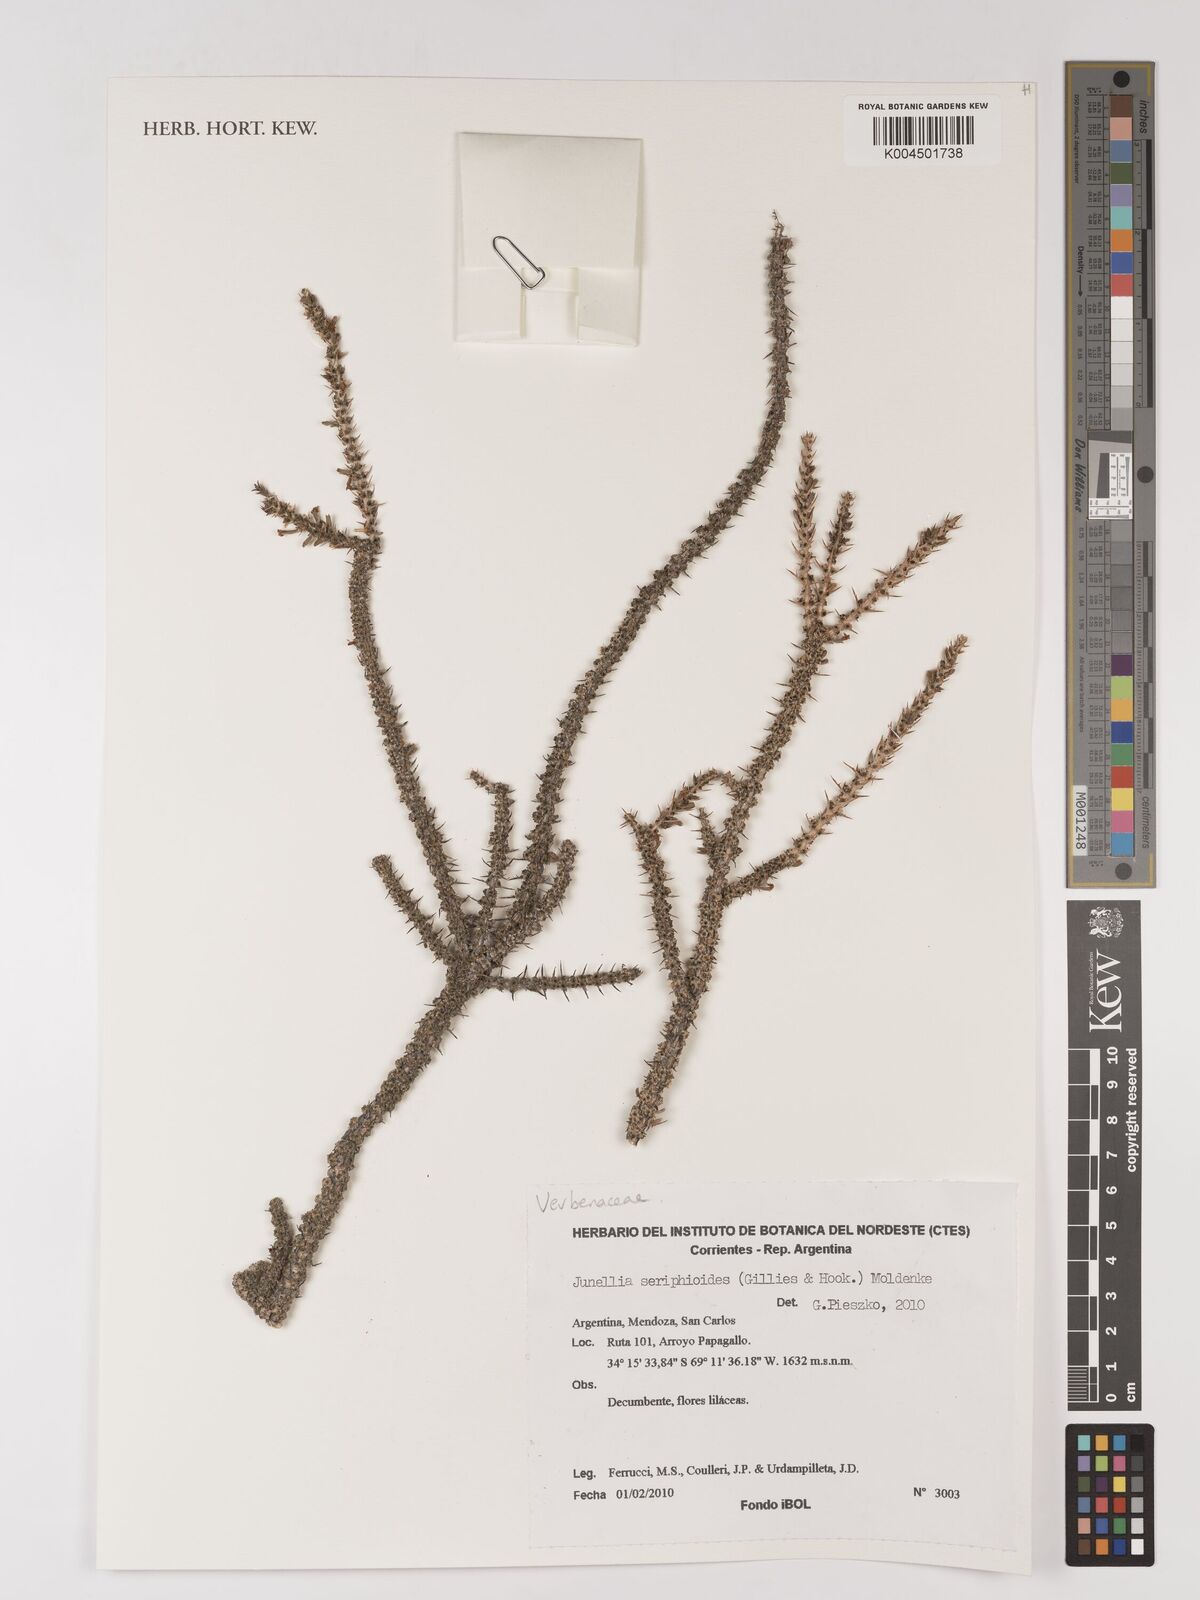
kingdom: Plantae
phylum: Tracheophyta
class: Magnoliopsida
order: Lamiales
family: Verbenaceae
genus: Junellia
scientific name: Junellia seriphioides
